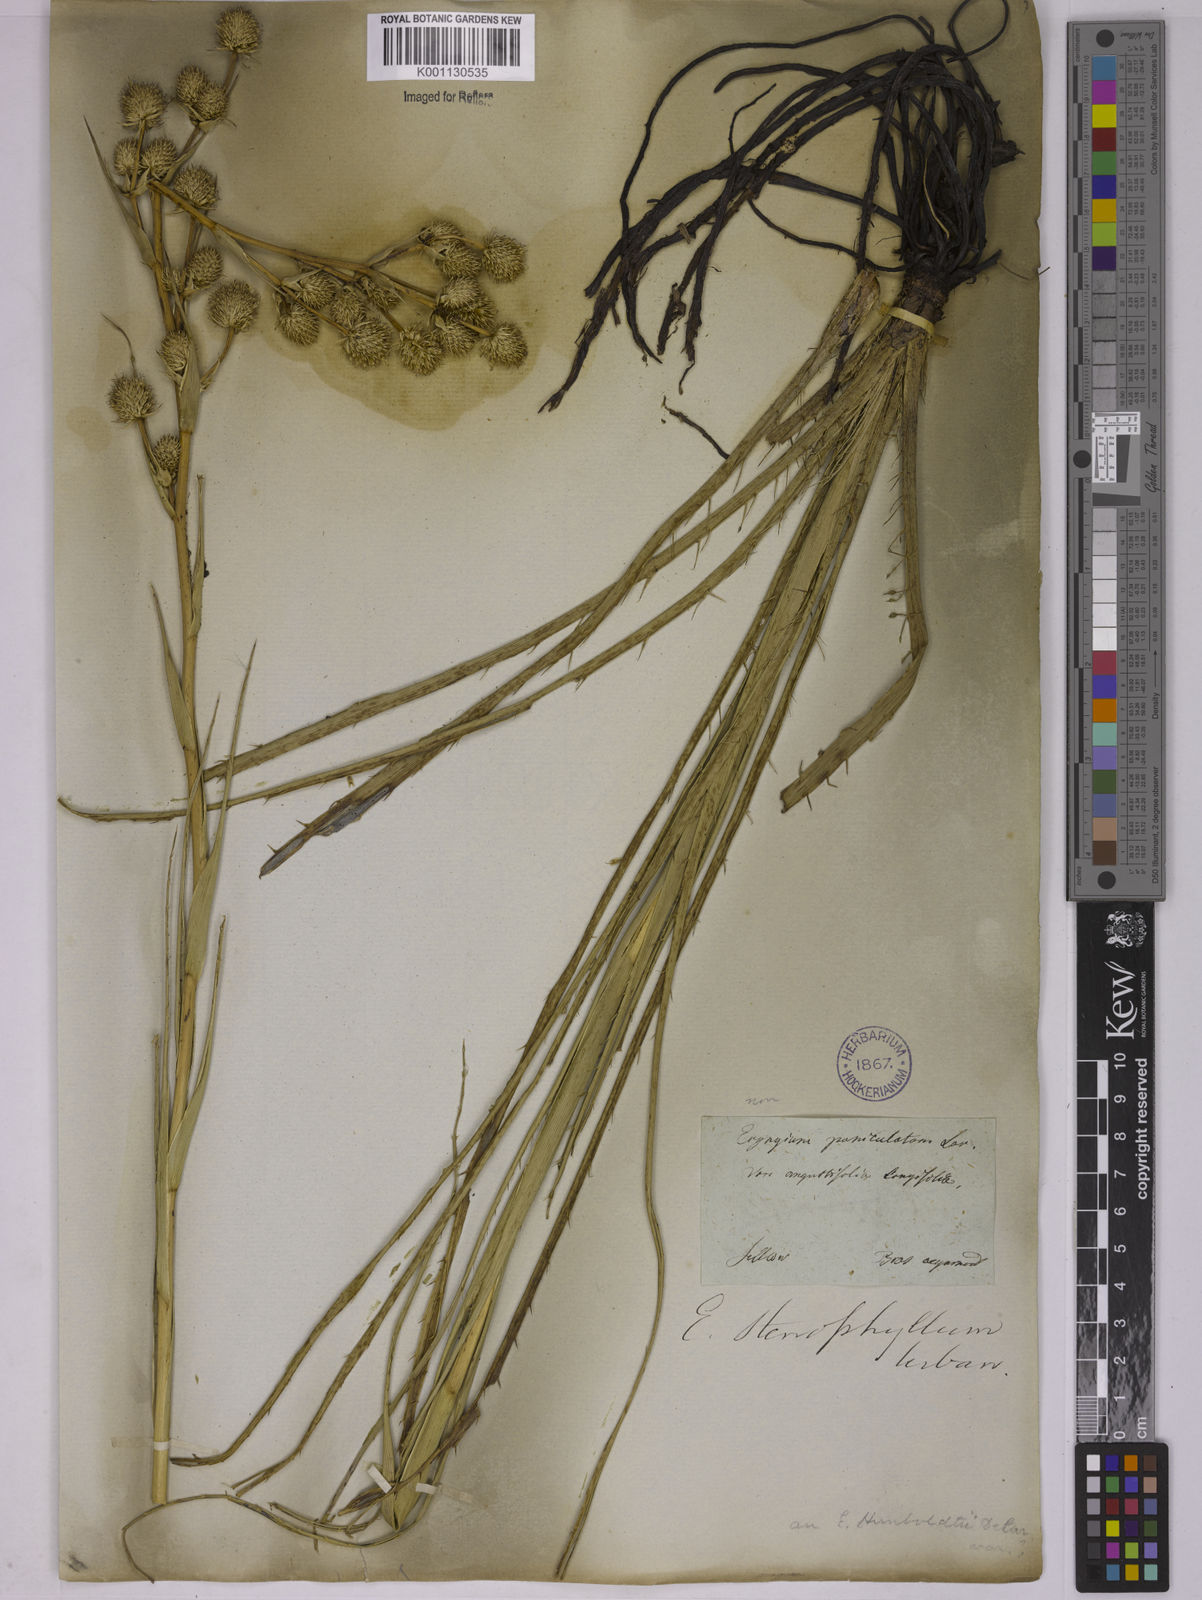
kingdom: Plantae
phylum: Tracheophyta
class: Magnoliopsida
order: Apiales
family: Apiaceae
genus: Eryngium
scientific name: Eryngium stenophyllum
